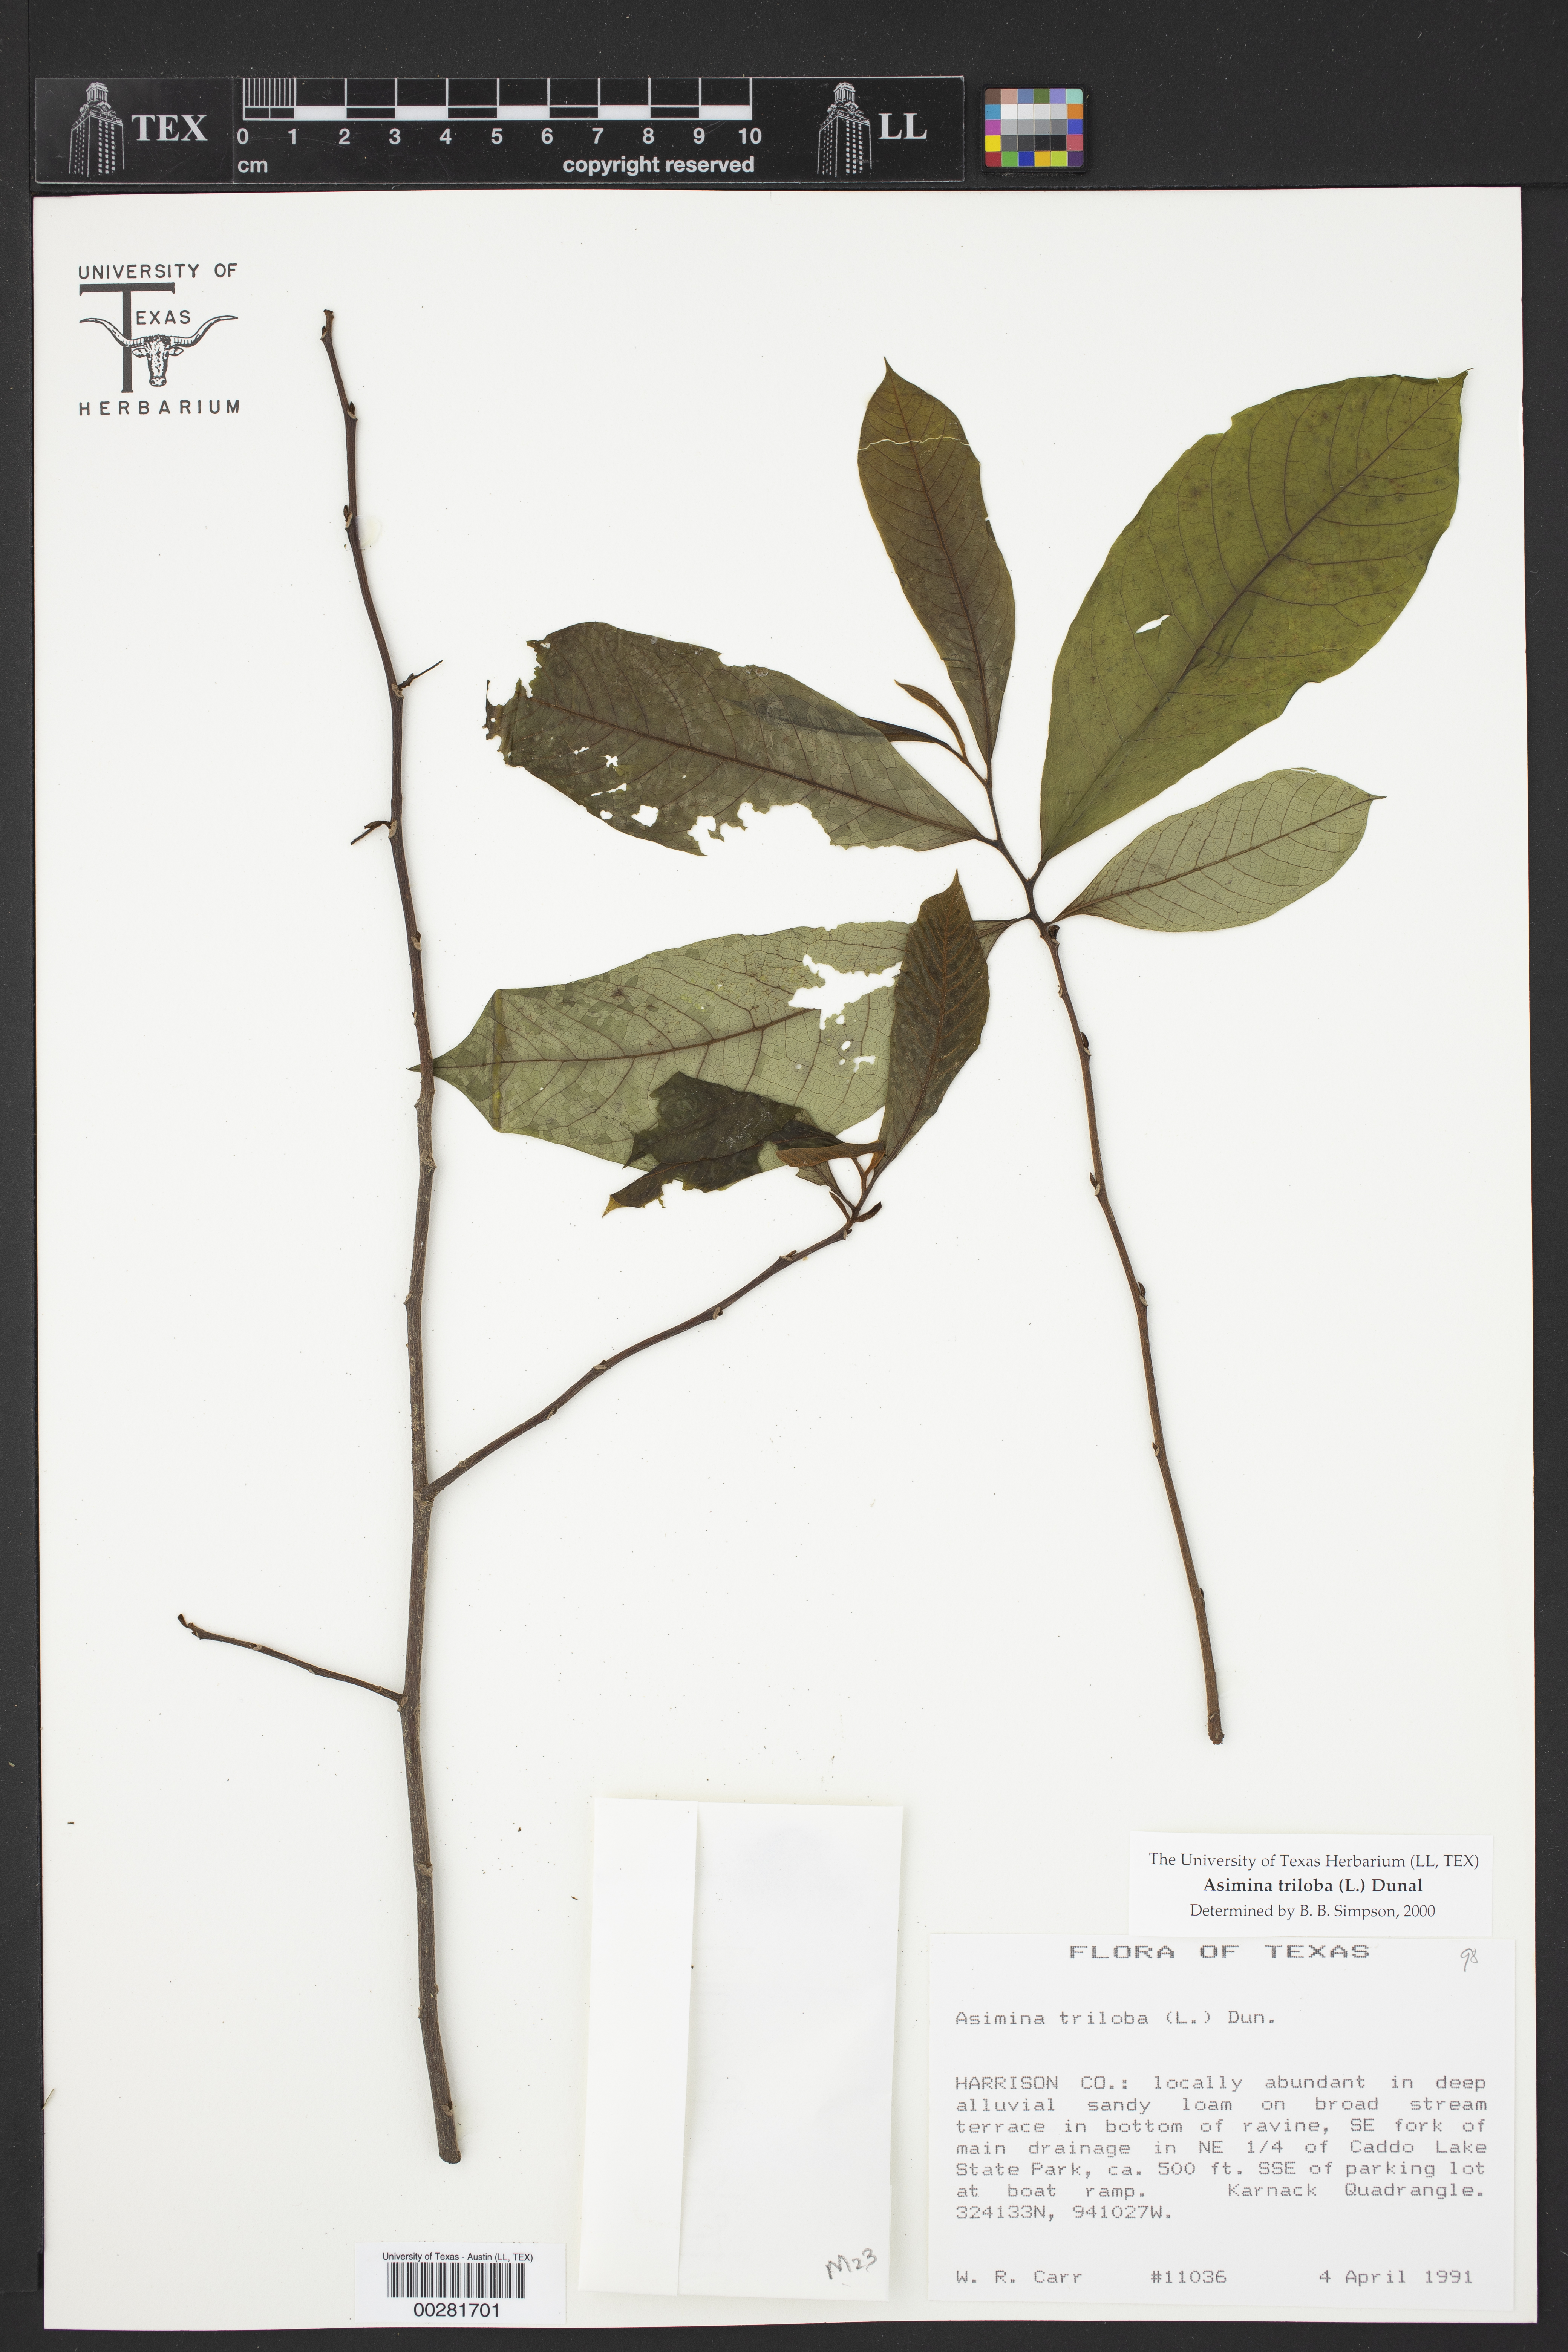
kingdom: Plantae
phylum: Tracheophyta
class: Magnoliopsida
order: Magnoliales
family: Annonaceae
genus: Asimina
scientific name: Asimina triloba
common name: Dog-banana
